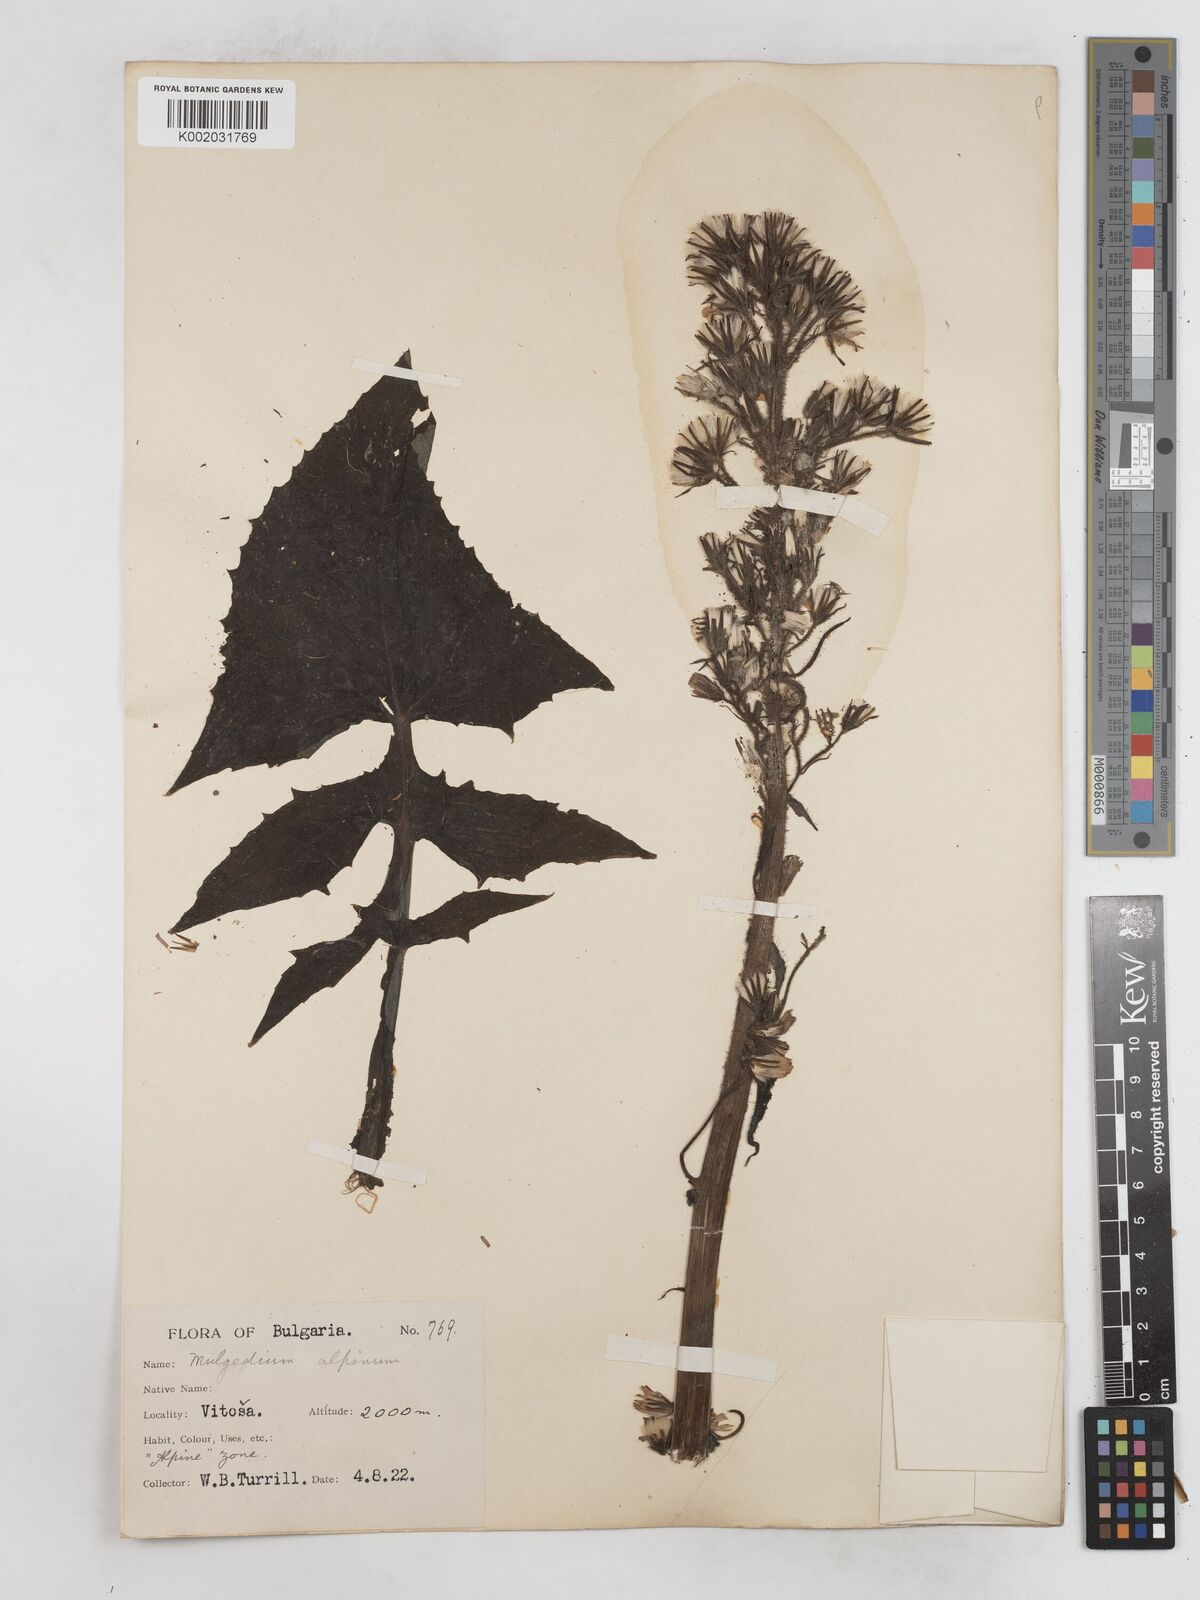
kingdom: Plantae
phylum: Tracheophyta
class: Magnoliopsida
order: Asterales
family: Asteraceae
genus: Cicerbita
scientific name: Cicerbita alpina
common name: Alpine blue-sow-thistle
